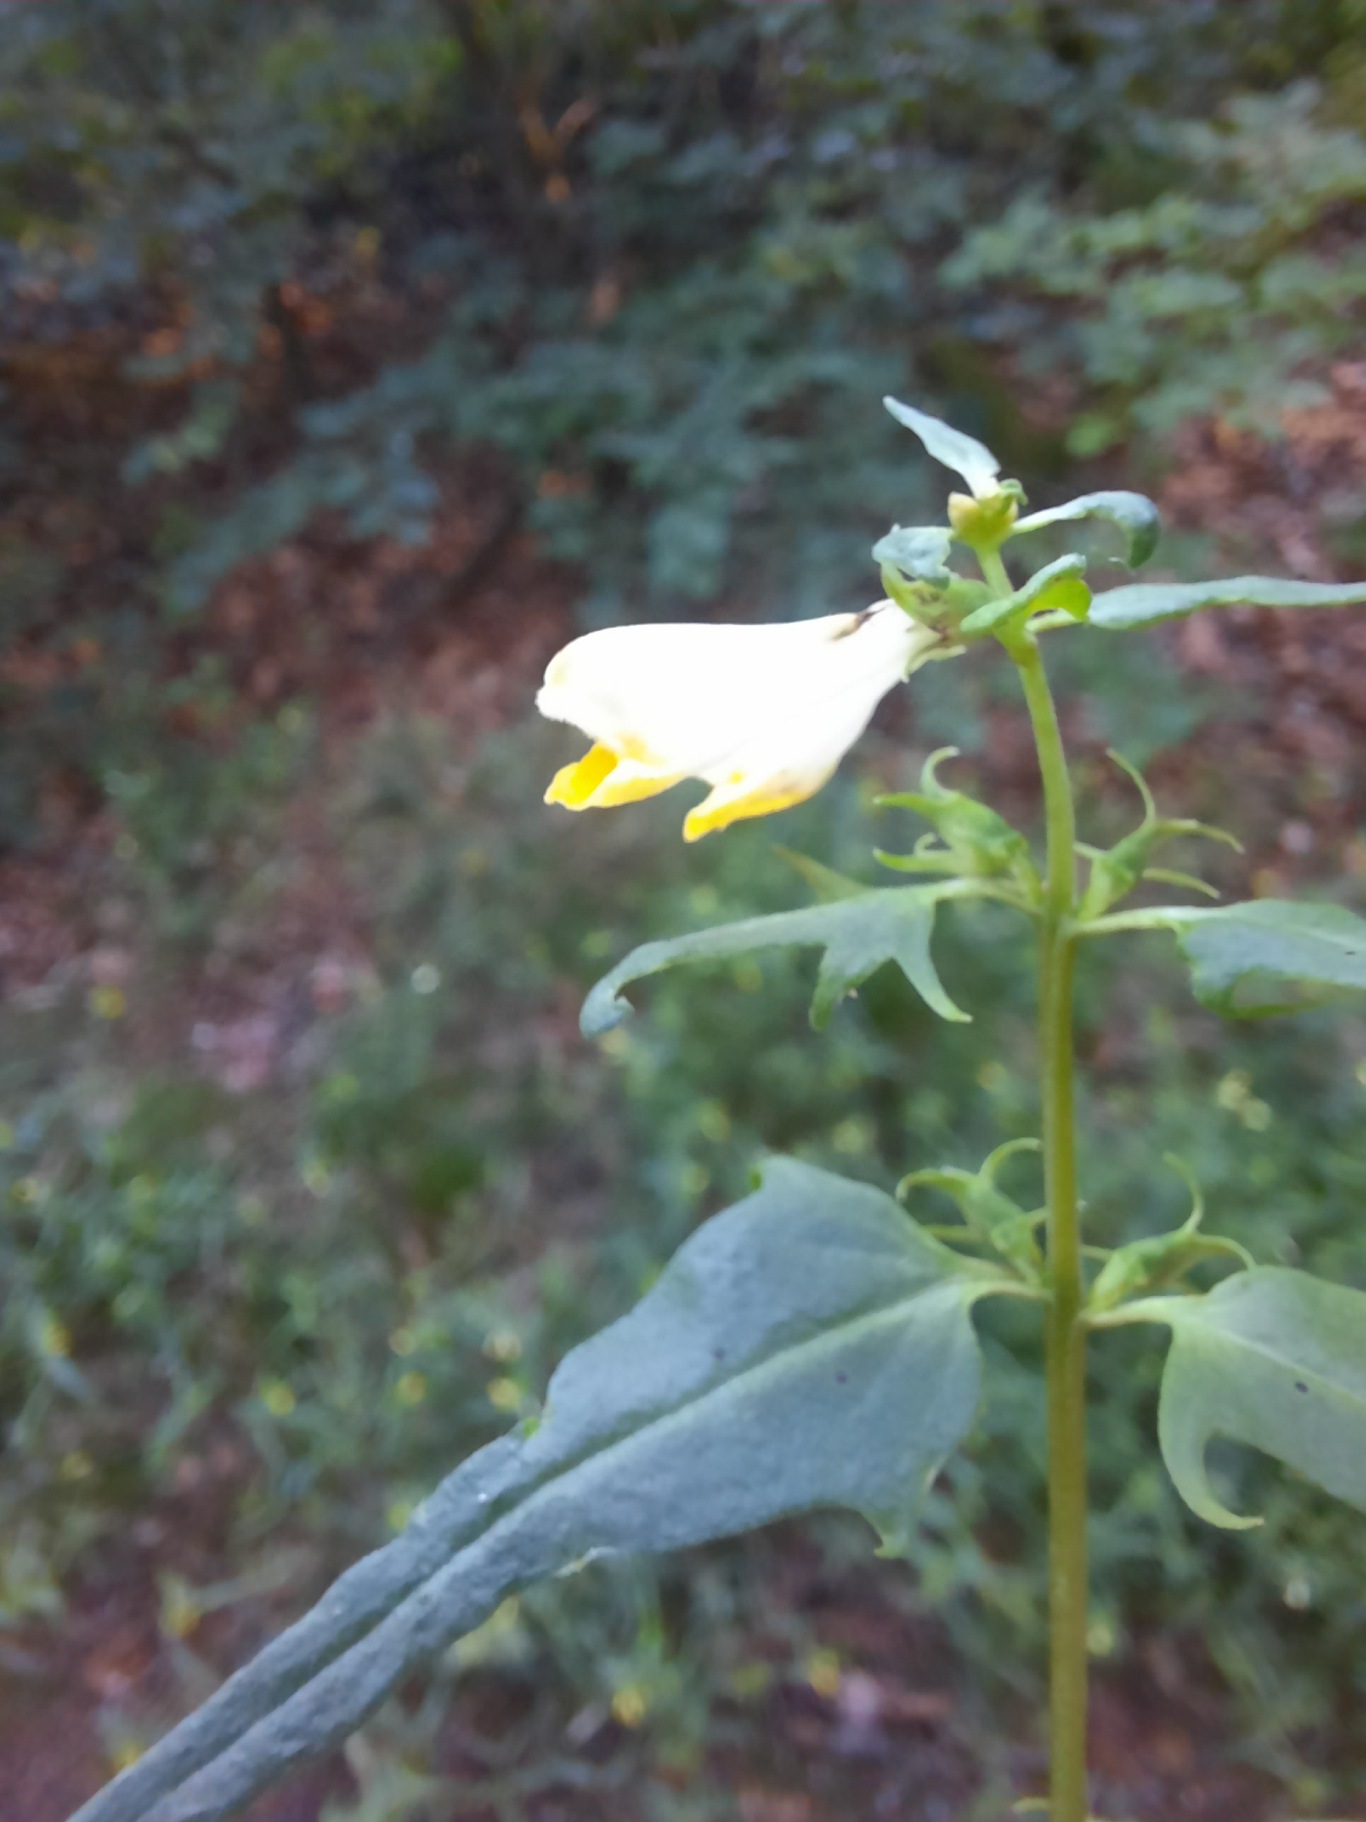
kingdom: Plantae
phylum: Tracheophyta
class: Magnoliopsida
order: Lamiales
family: Orobanchaceae
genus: Melampyrum
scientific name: Melampyrum pratense
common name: Almindelig kohvede
